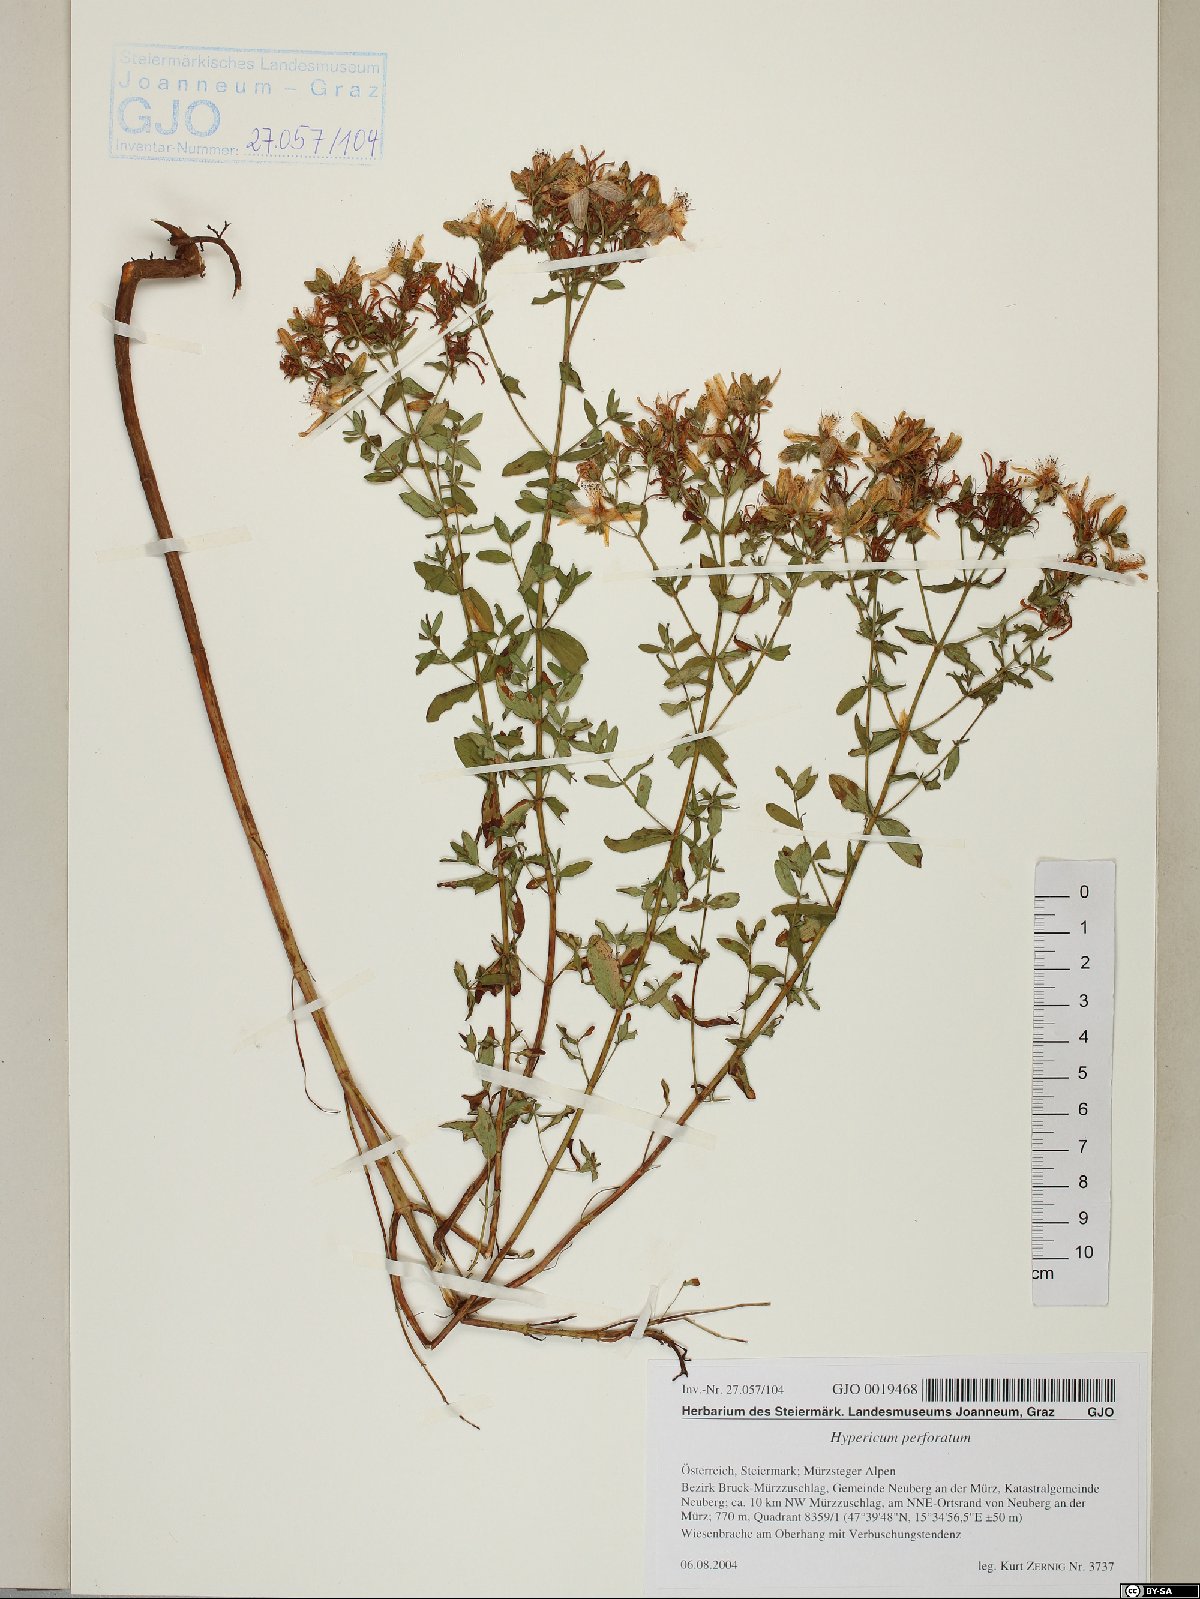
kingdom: Plantae
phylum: Tracheophyta
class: Magnoliopsida
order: Malpighiales
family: Hypericaceae
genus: Hypericum
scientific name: Hypericum perforatum
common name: Common st. johnswort
